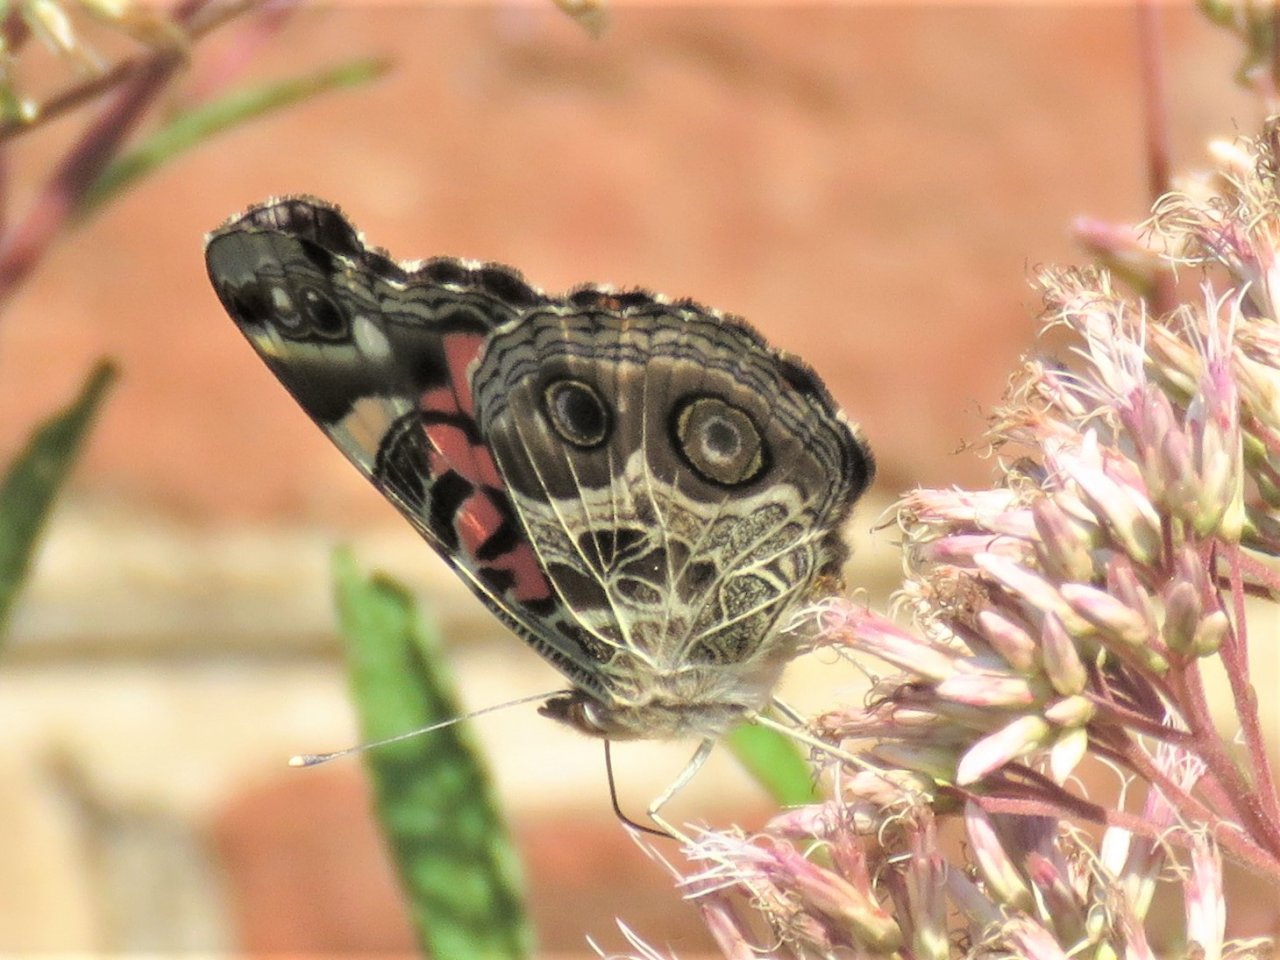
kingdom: Animalia
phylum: Arthropoda
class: Insecta
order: Lepidoptera
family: Nymphalidae
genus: Vanessa
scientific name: Vanessa virginiensis
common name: American Lady
